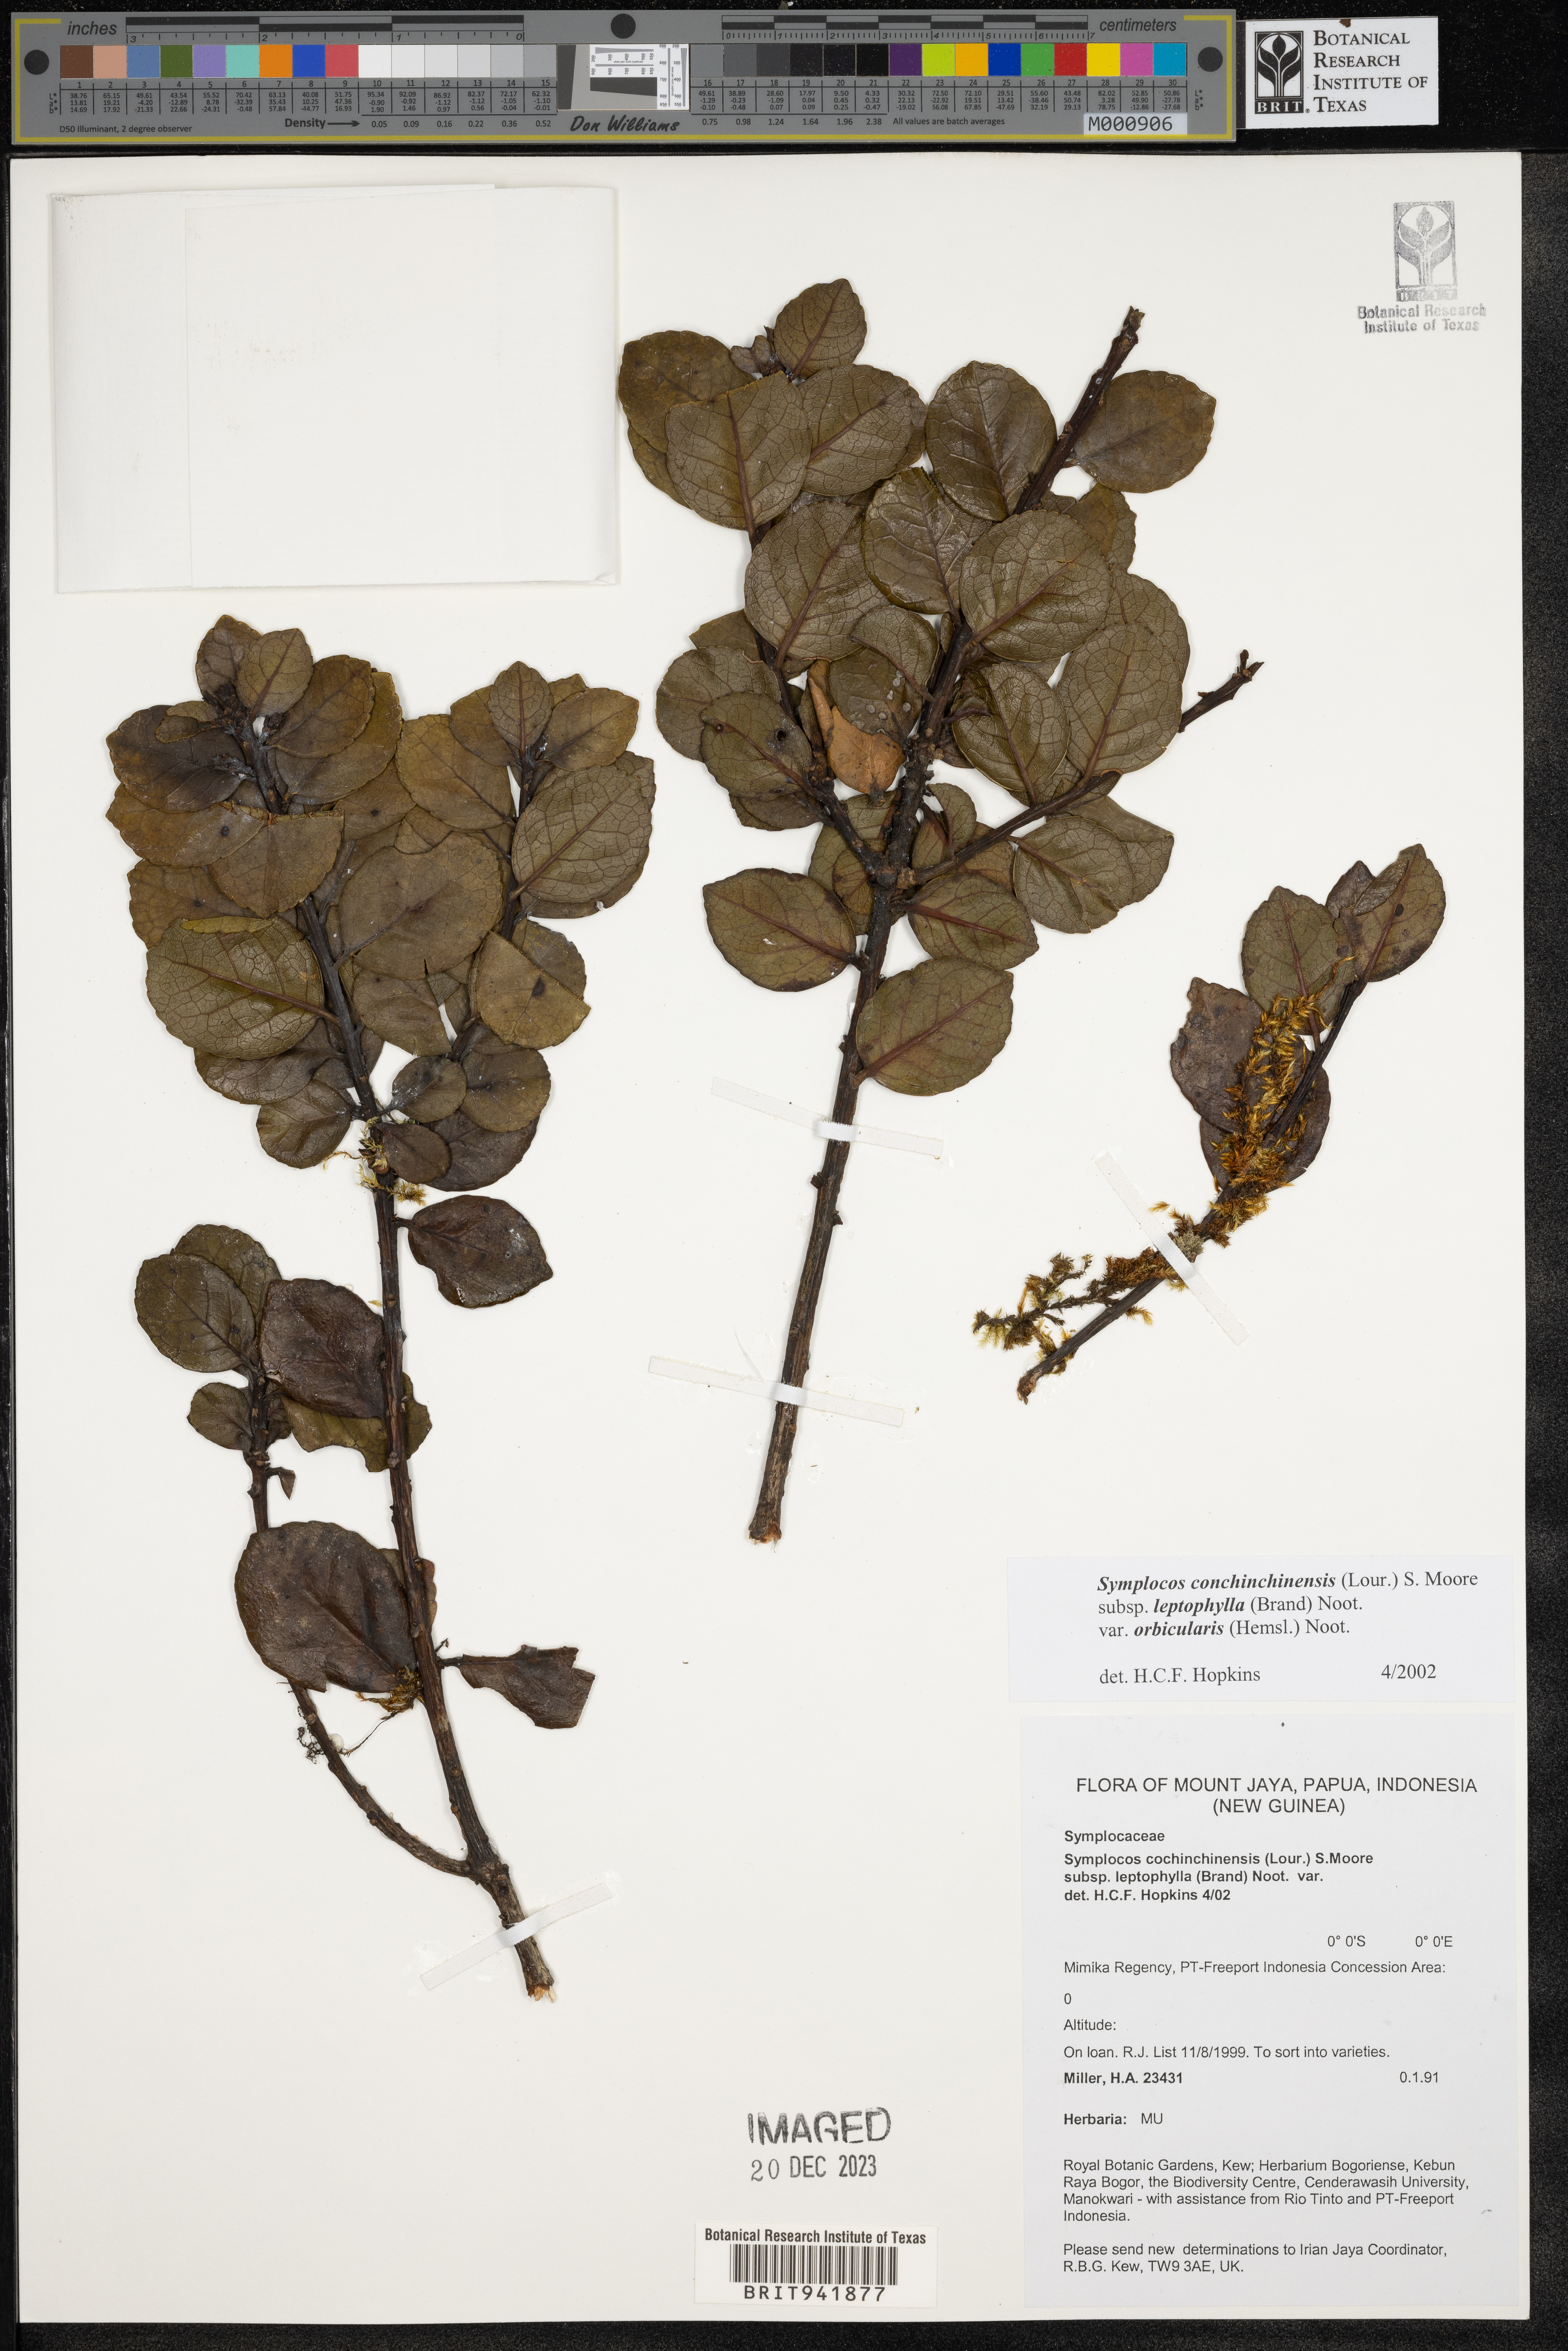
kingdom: Plantae
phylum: Tracheophyta
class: Magnoliopsida
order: Ericales
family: Symplocaceae
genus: Symplocos
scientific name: Symplocos cochinchinensis
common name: Buff hazelwood
